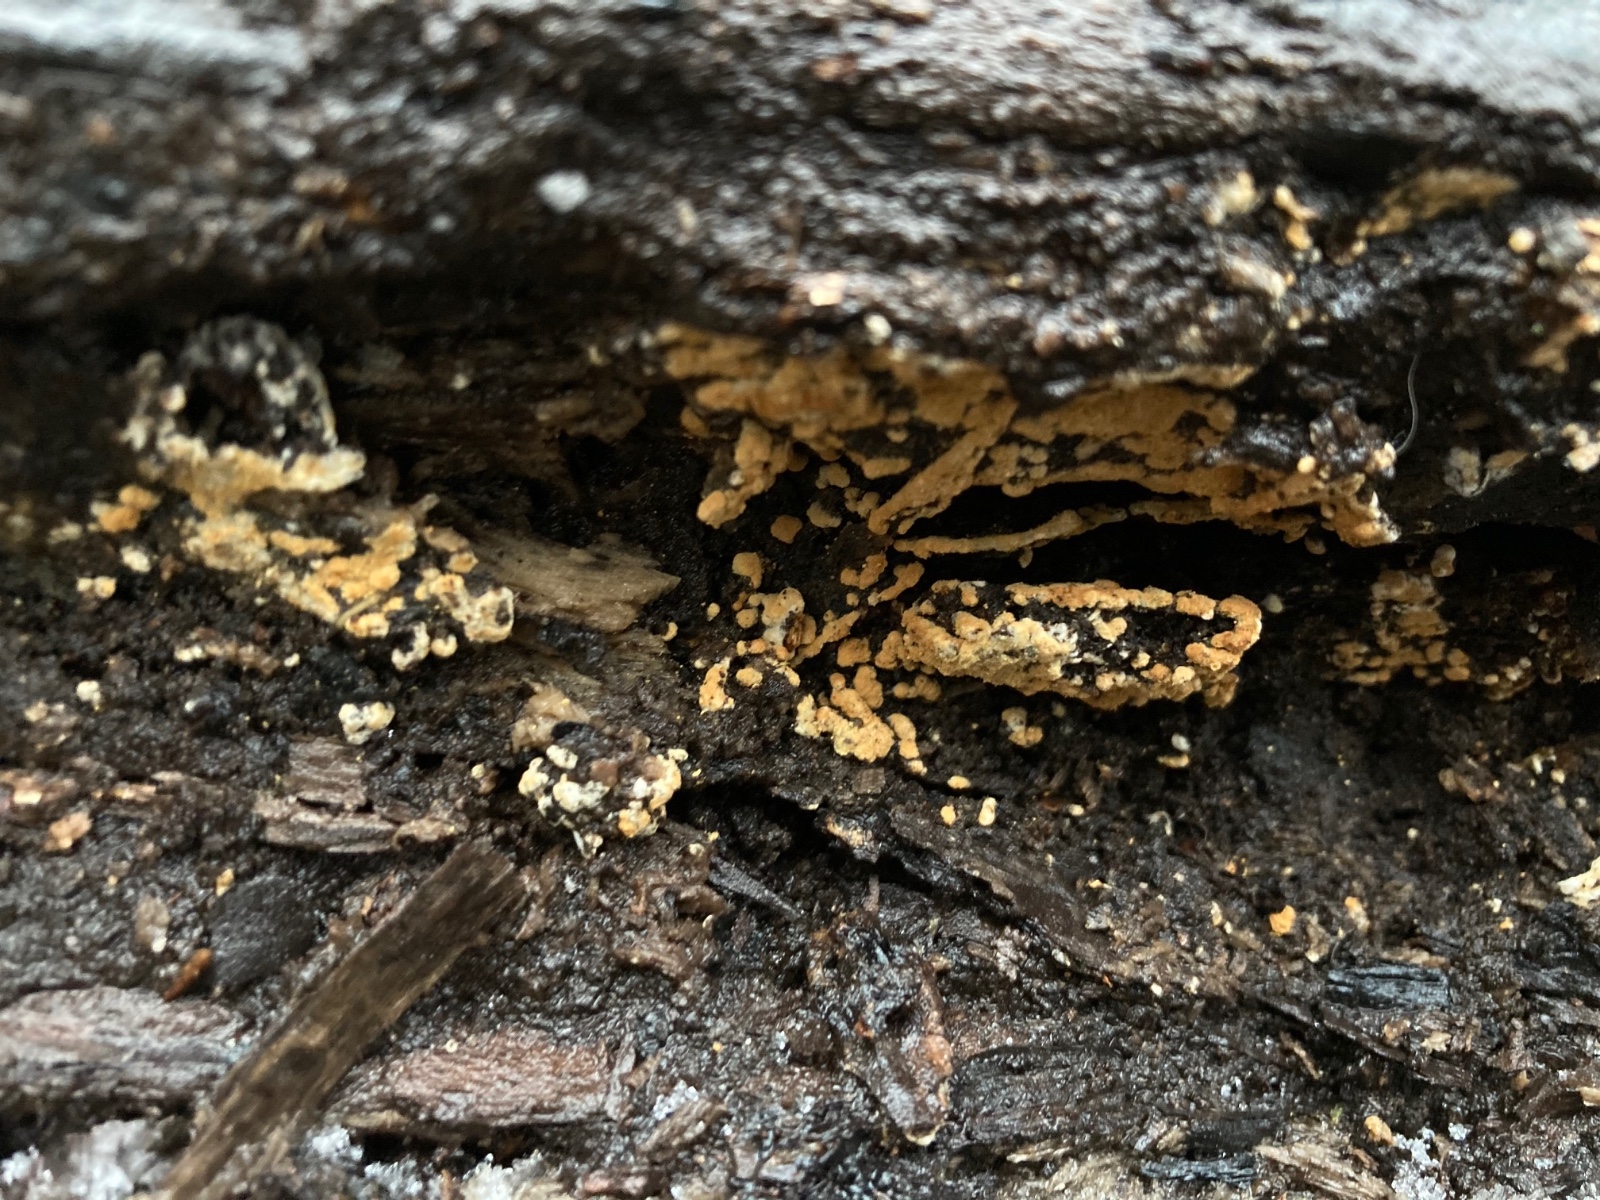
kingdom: Fungi
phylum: Basidiomycota
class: Agaricomycetes
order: Cantharellales
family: Botryobasidiaceae
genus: Botryobasidium
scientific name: Botryobasidium aureum
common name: gylden spindhinde
